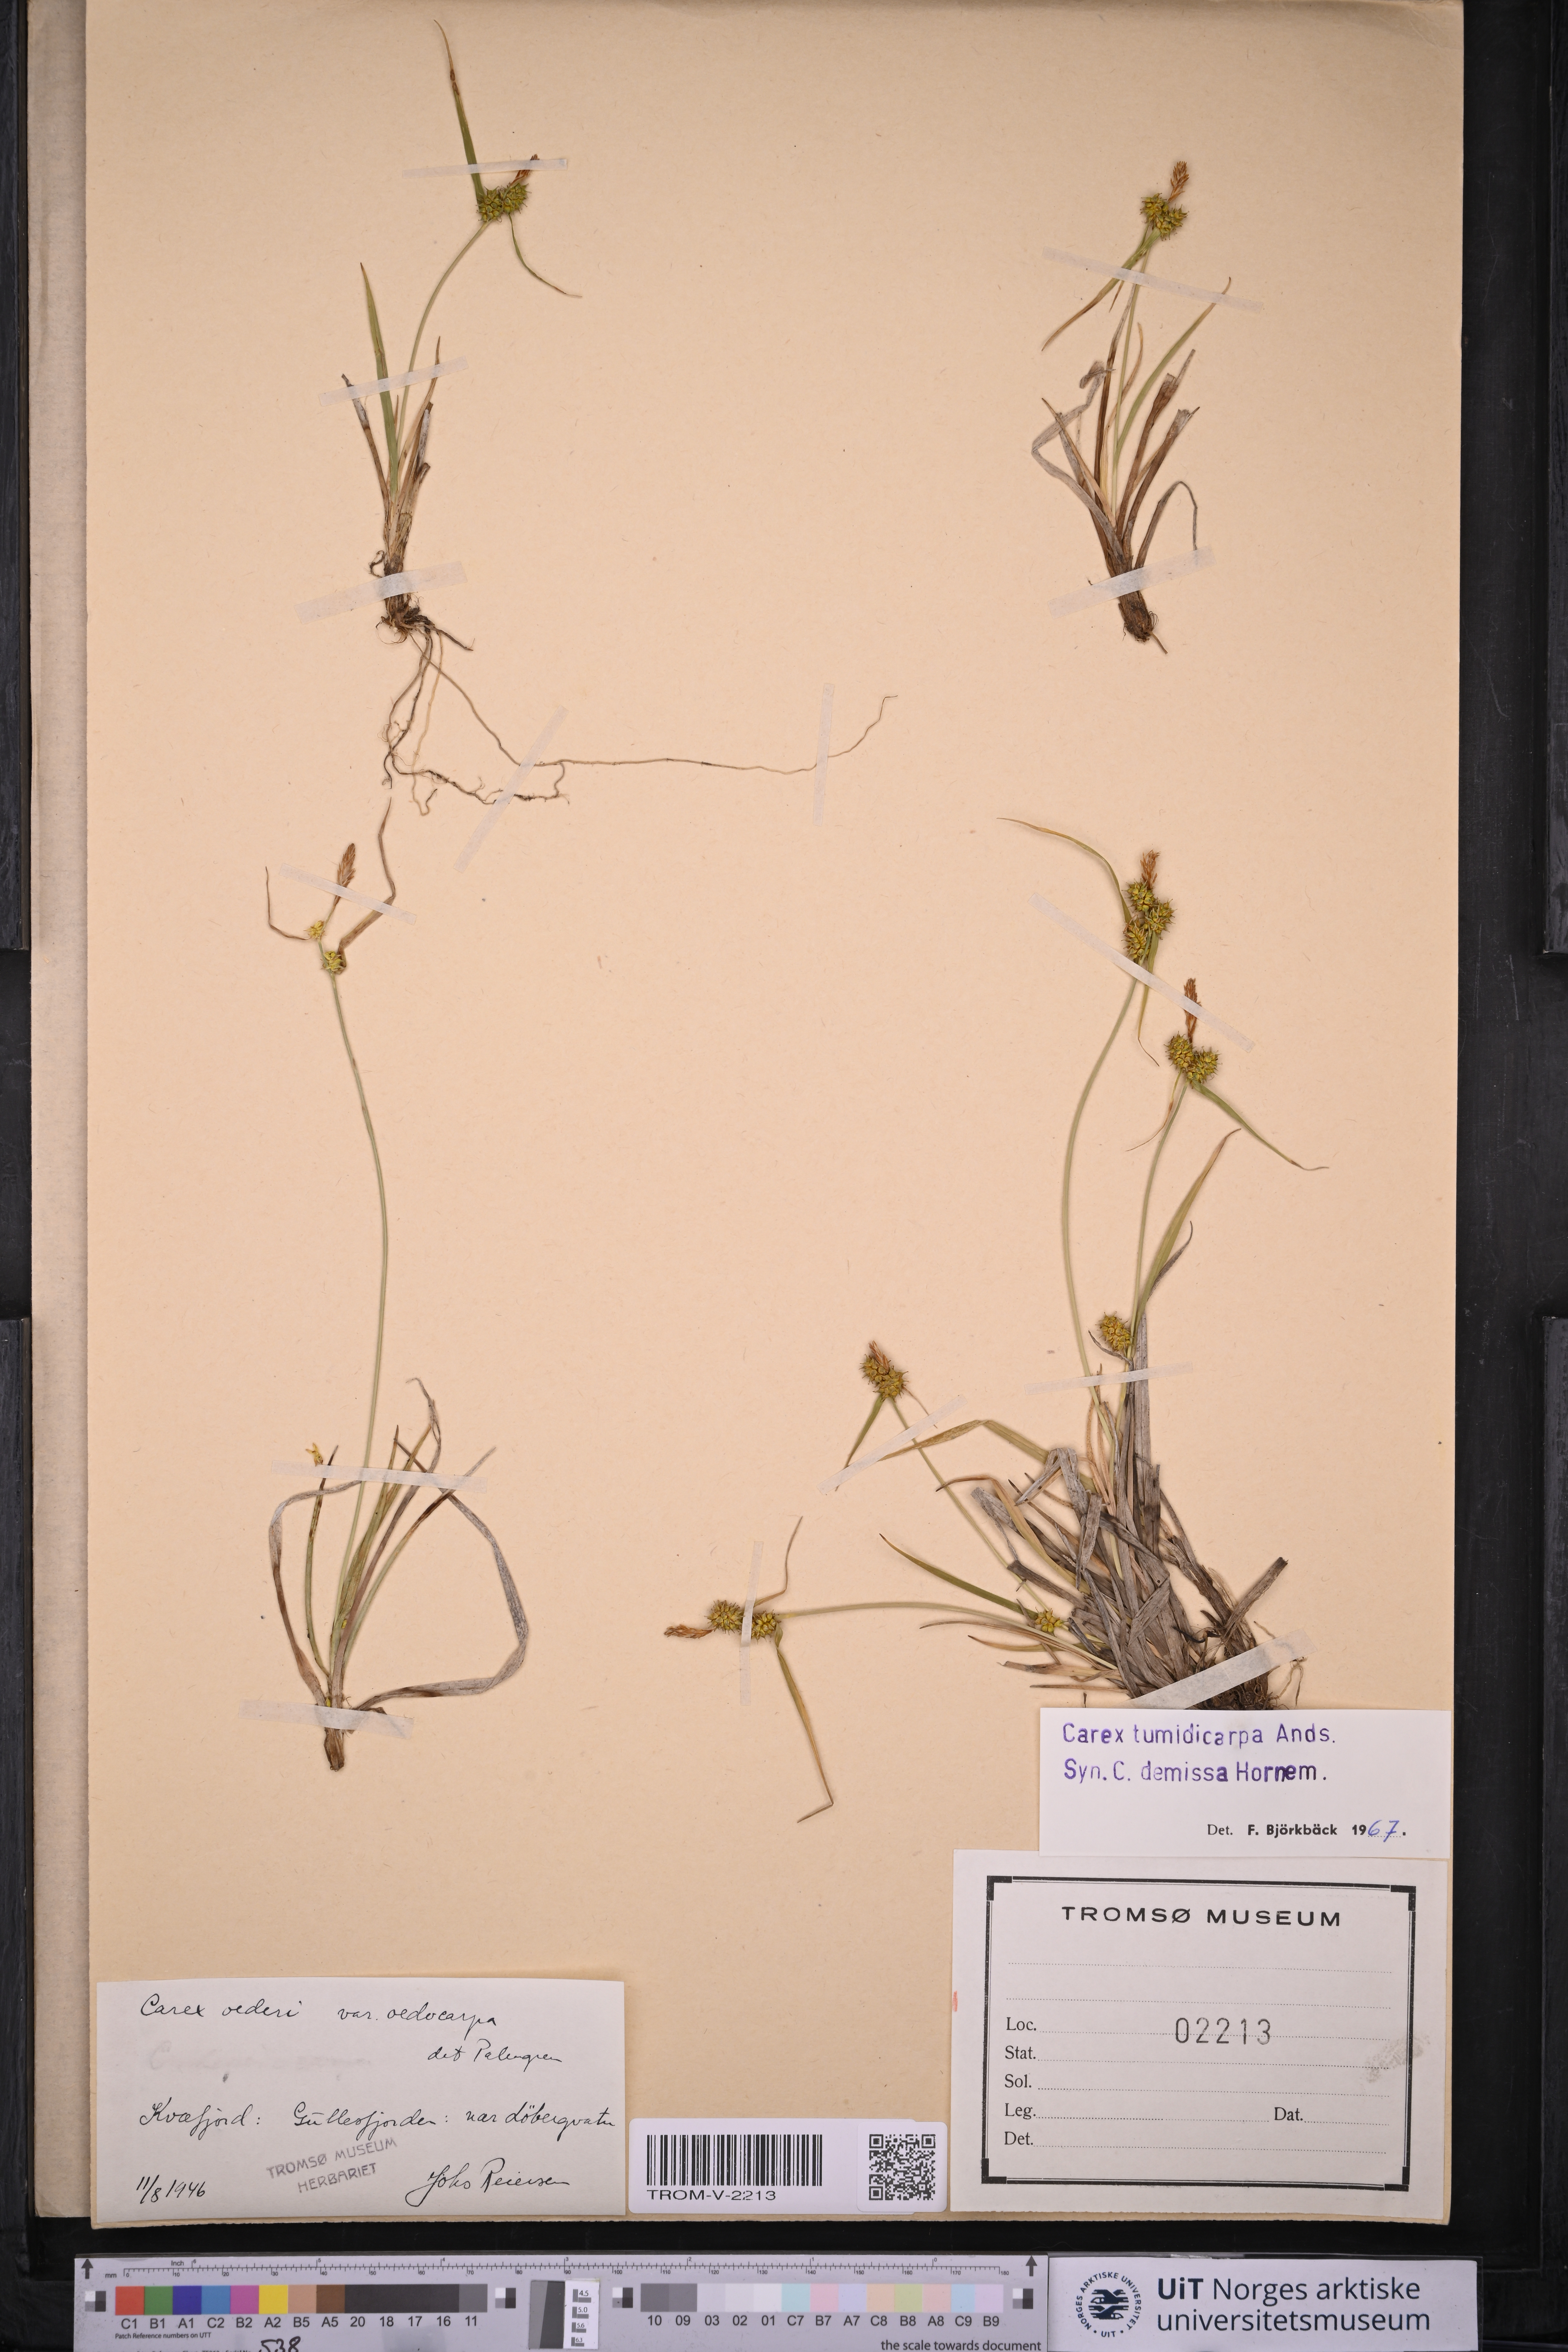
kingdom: Plantae
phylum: Tracheophyta
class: Liliopsida
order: Poales
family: Cyperaceae
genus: Carex
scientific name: Carex demissa
